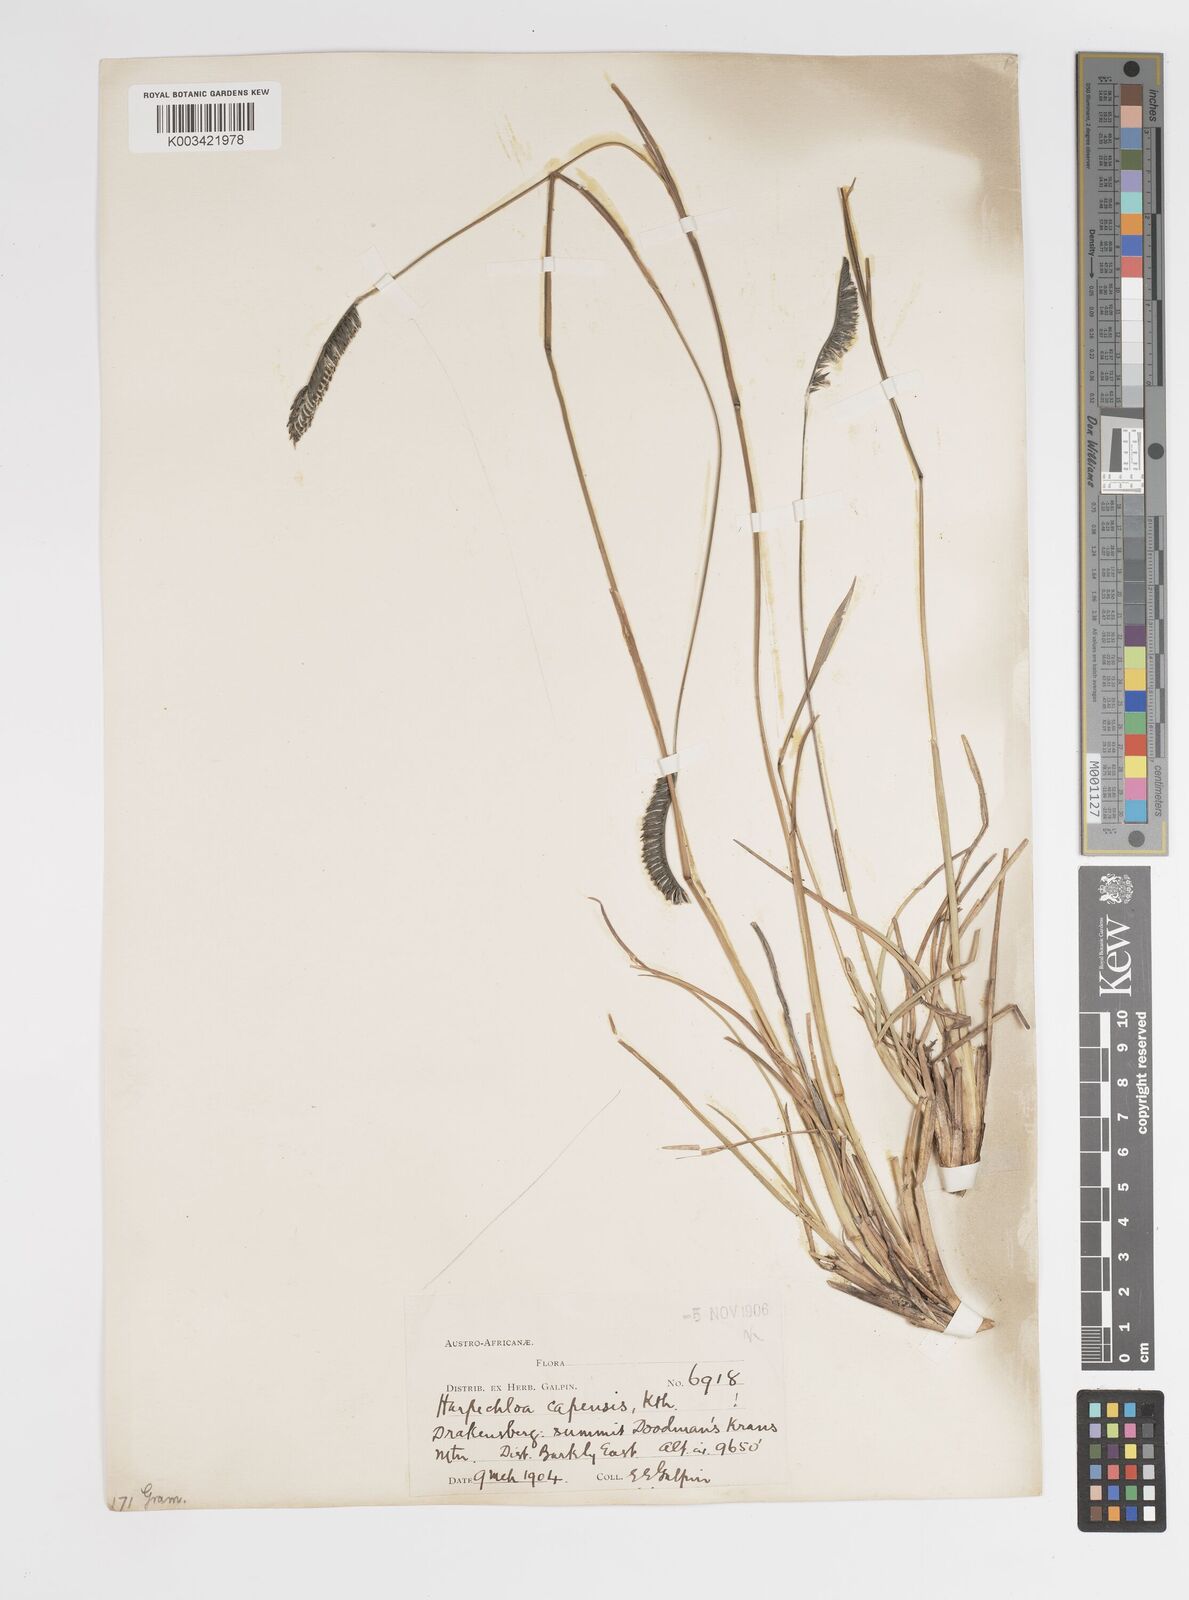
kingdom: Plantae
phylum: Tracheophyta
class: Liliopsida
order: Poales
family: Poaceae
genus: Harpochloa
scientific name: Harpochloa falx
